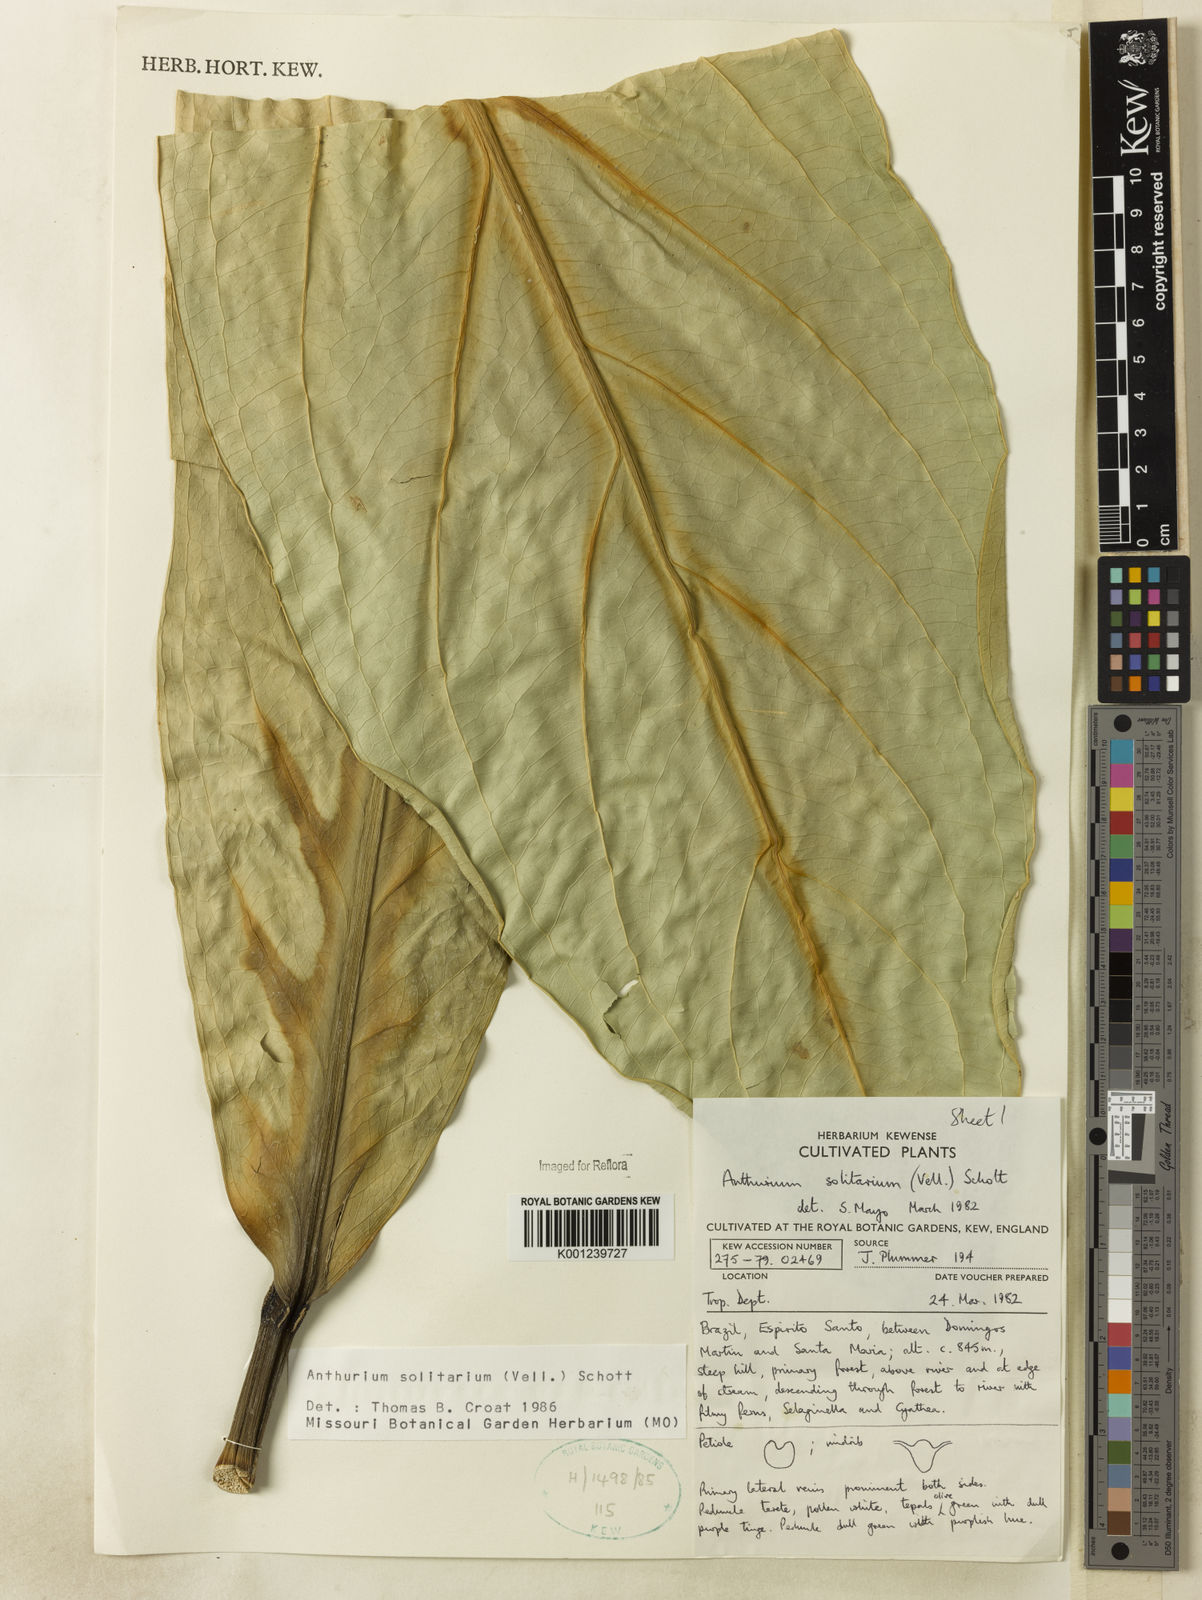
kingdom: Plantae
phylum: Tracheophyta
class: Liliopsida
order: Alismatales
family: Araceae
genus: Anthurium
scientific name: Anthurium solitarium
